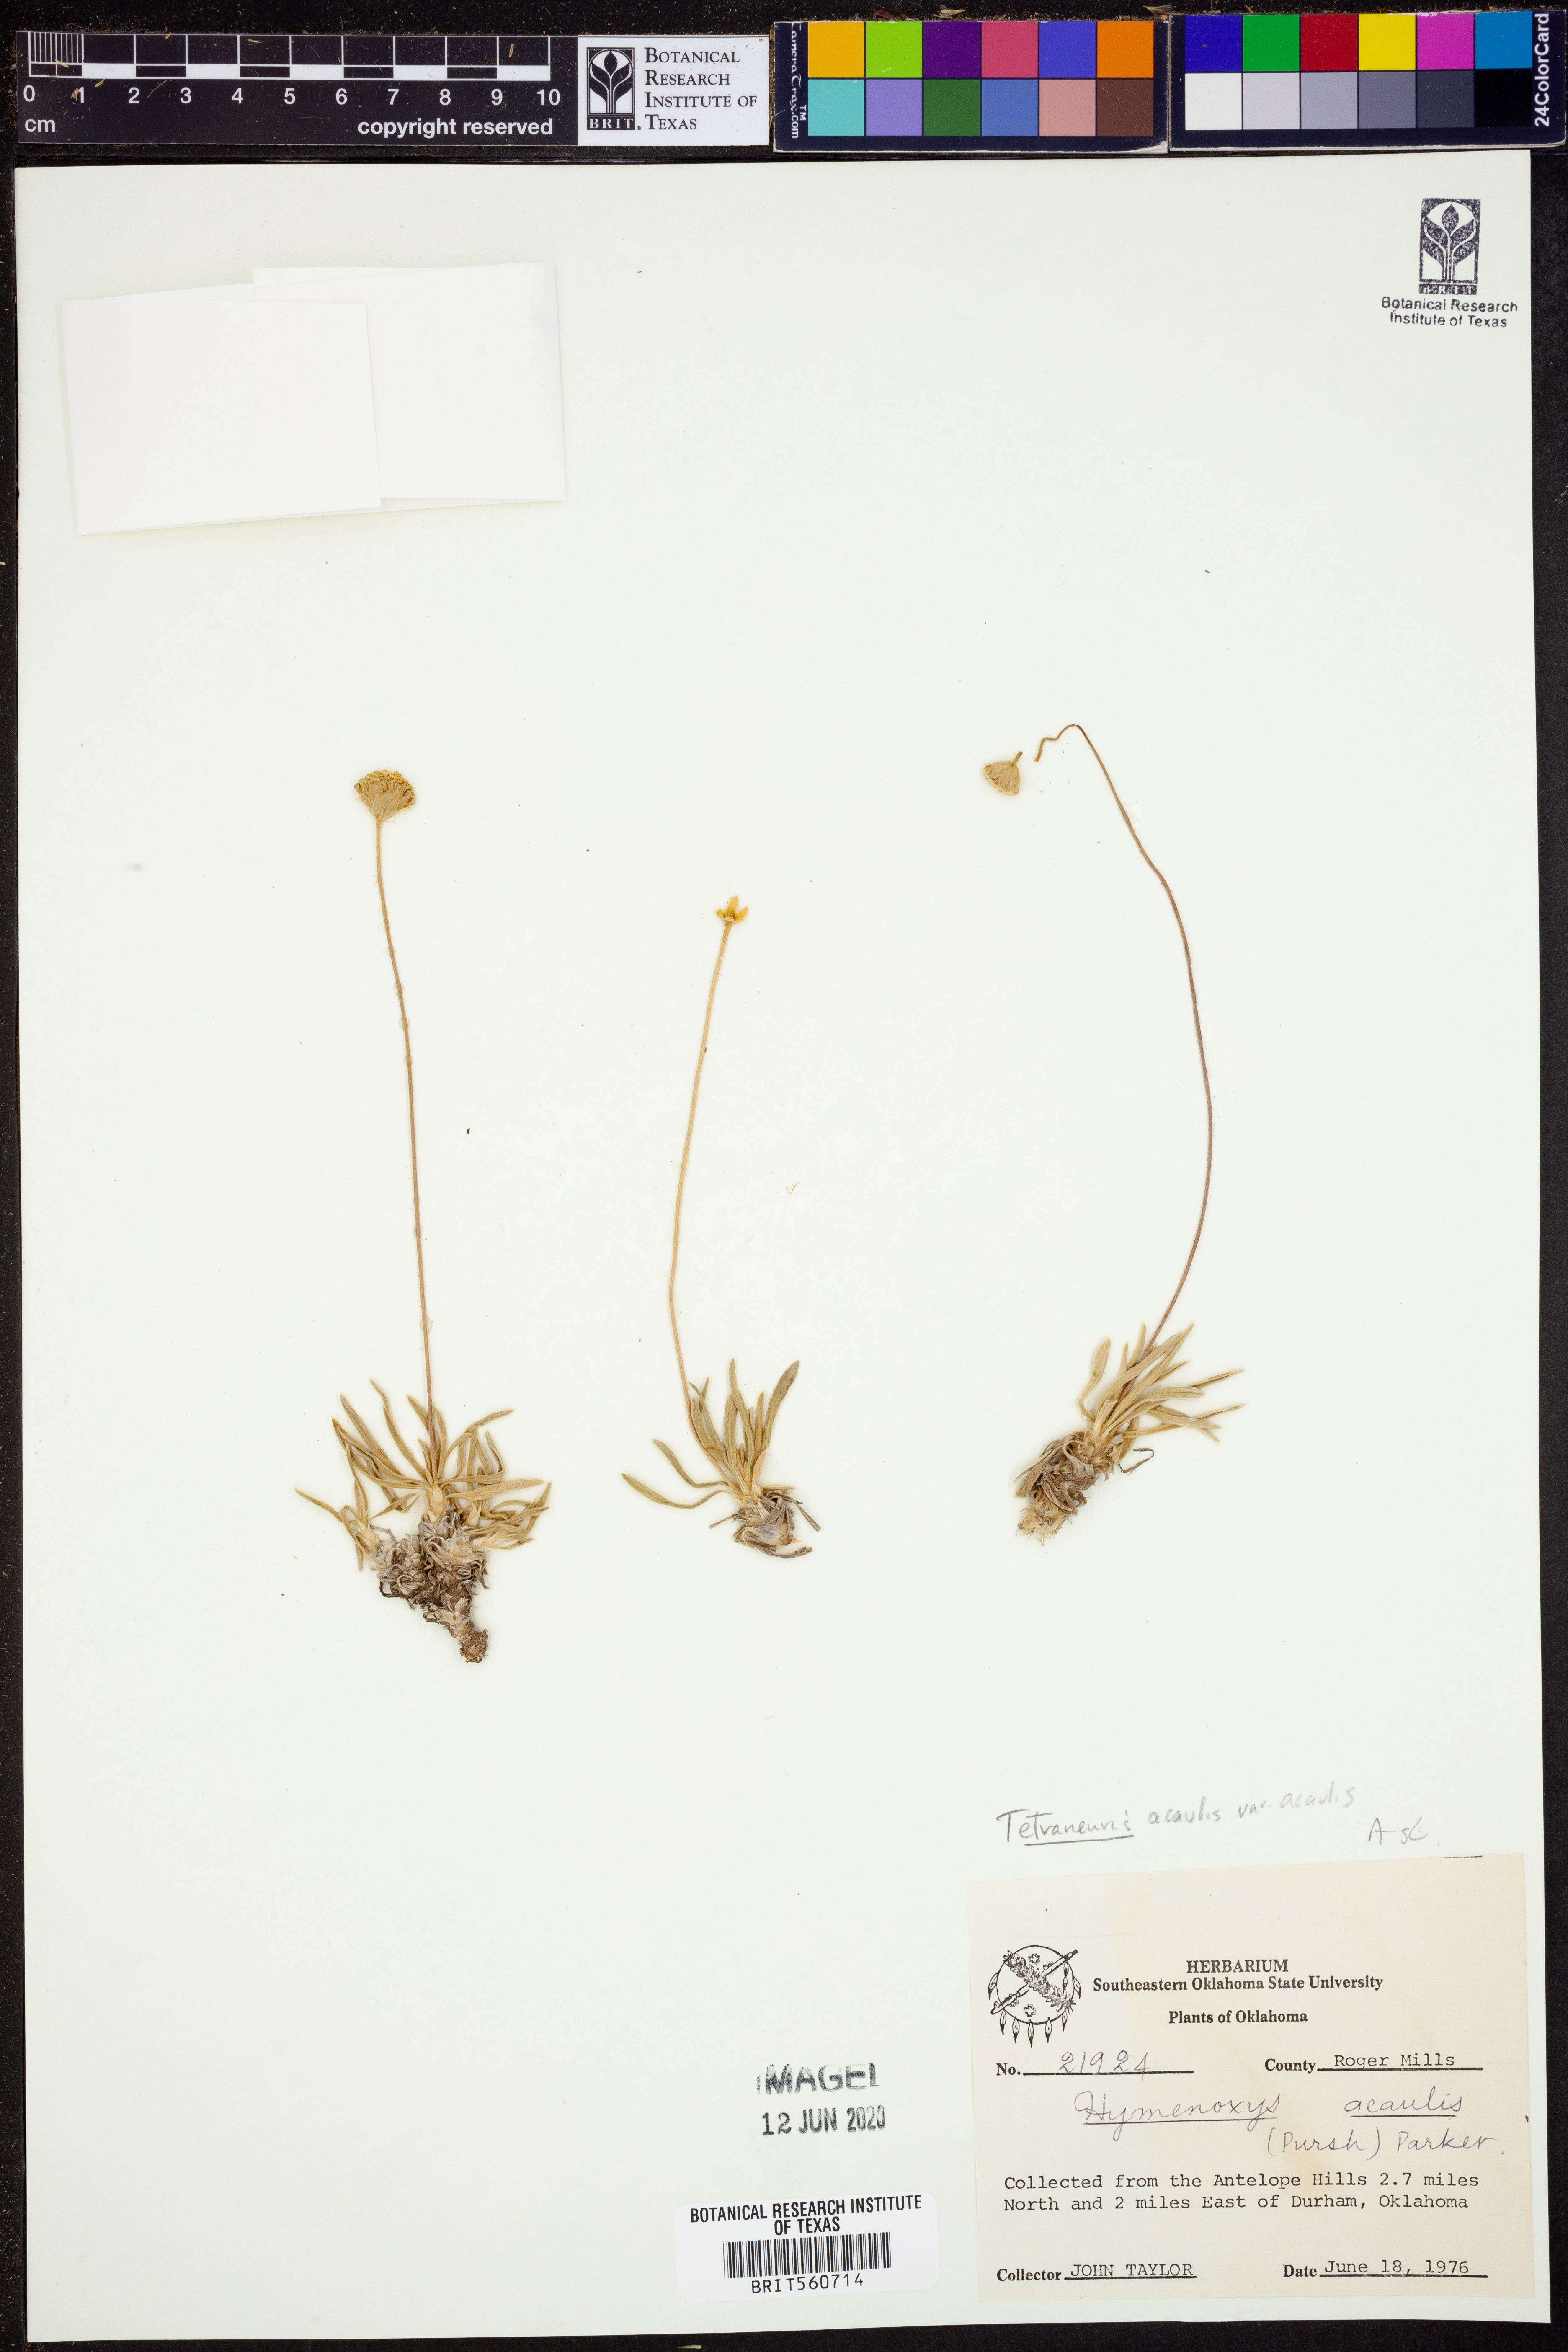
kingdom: Plantae
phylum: Tracheophyta
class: Magnoliopsida
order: Asterales
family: Asteraceae
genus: Tetraneuris
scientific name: Tetraneuris acaulis
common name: Butte marigold
